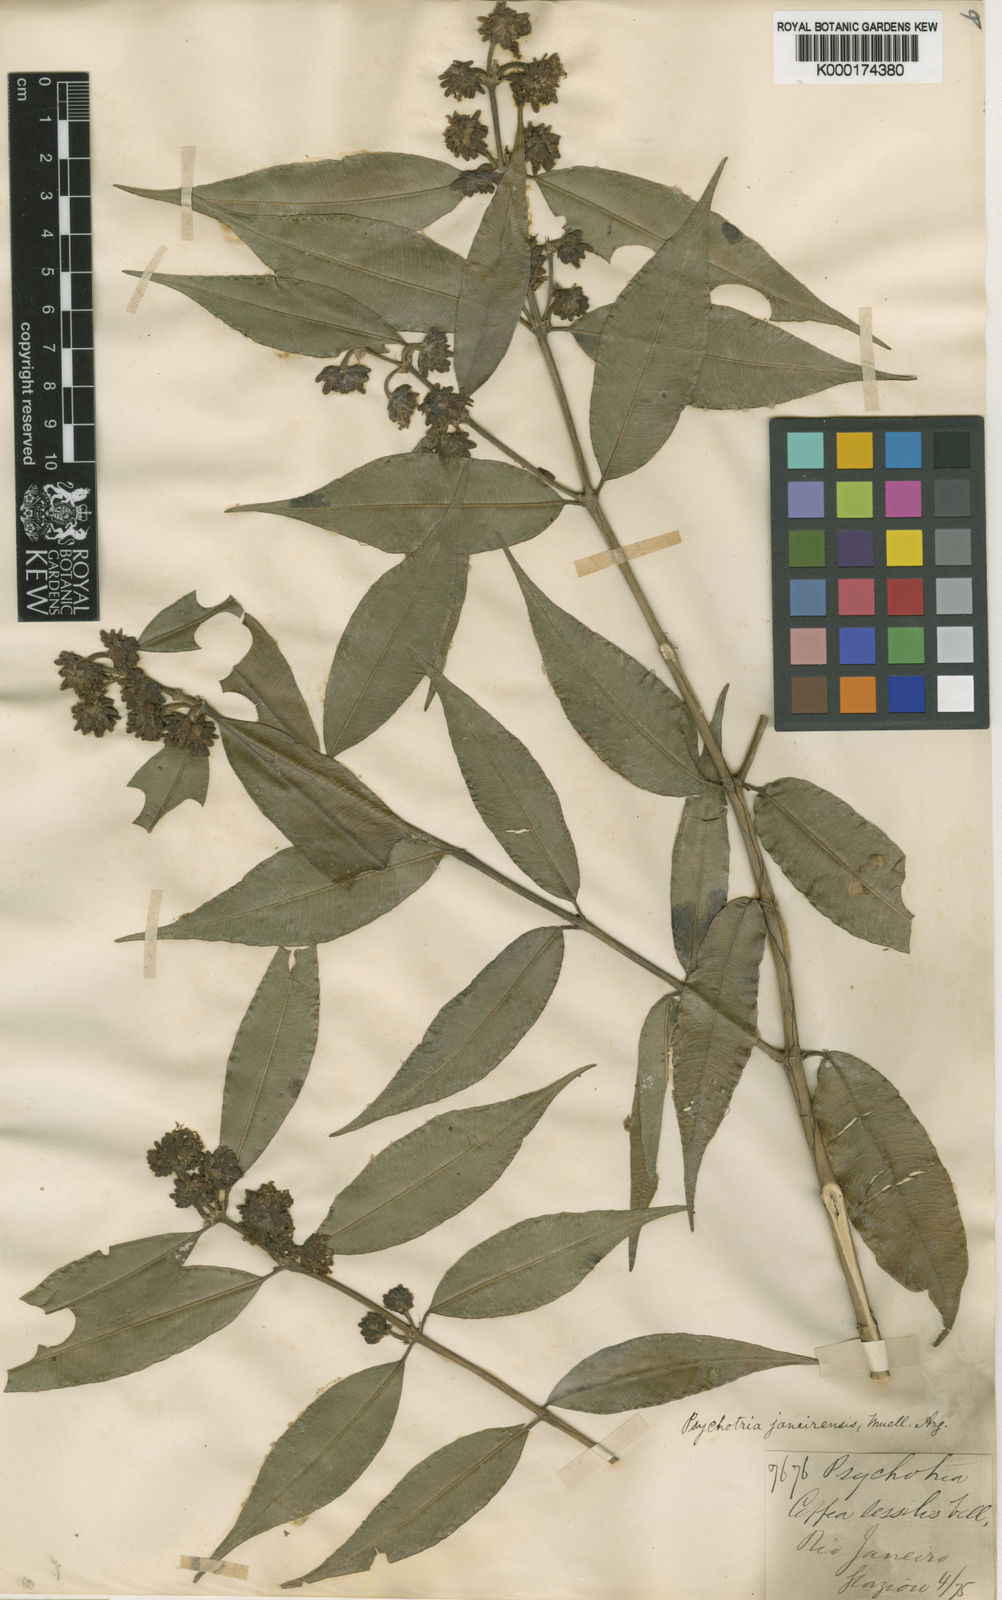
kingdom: Plantae
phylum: Tracheophyta
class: Magnoliopsida
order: Gentianales
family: Rubiaceae
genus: Psychotria
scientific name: Psychotria
